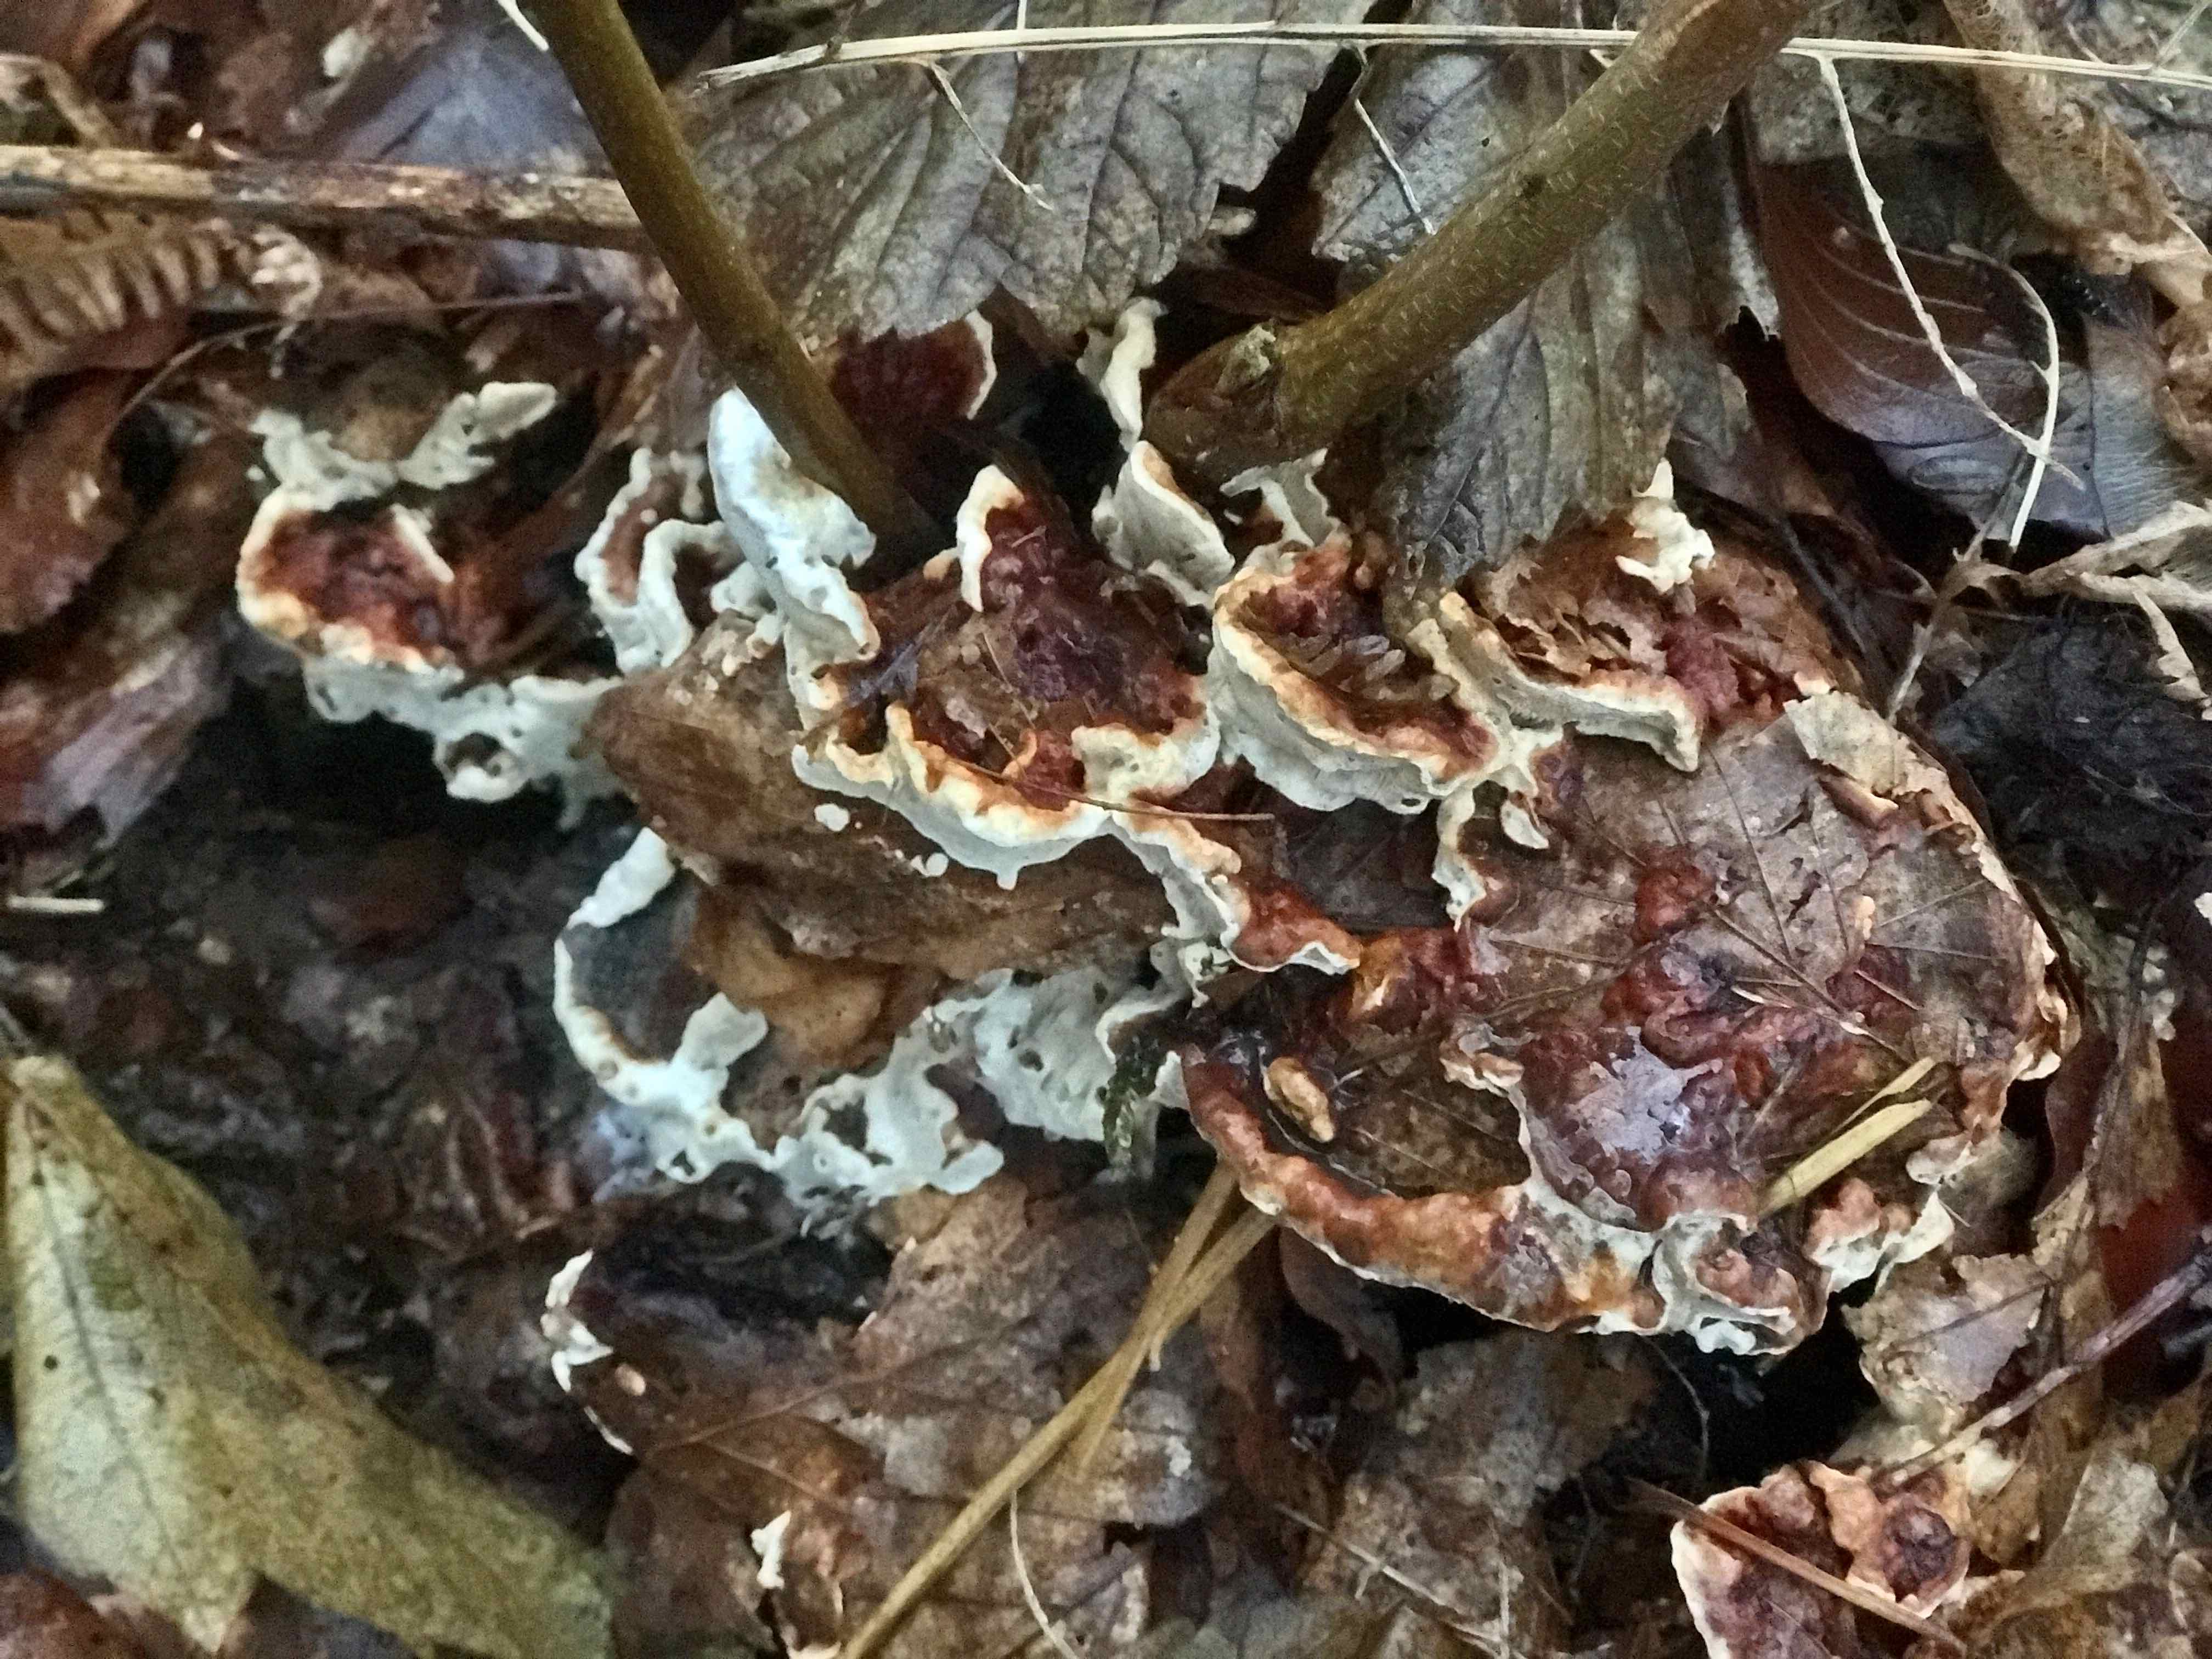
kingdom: Fungi
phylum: Basidiomycota
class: Agaricomycetes
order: Russulales
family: Bondarzewiaceae
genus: Heterobasidion
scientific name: Heterobasidion annosum
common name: almindelig rodfordærver
